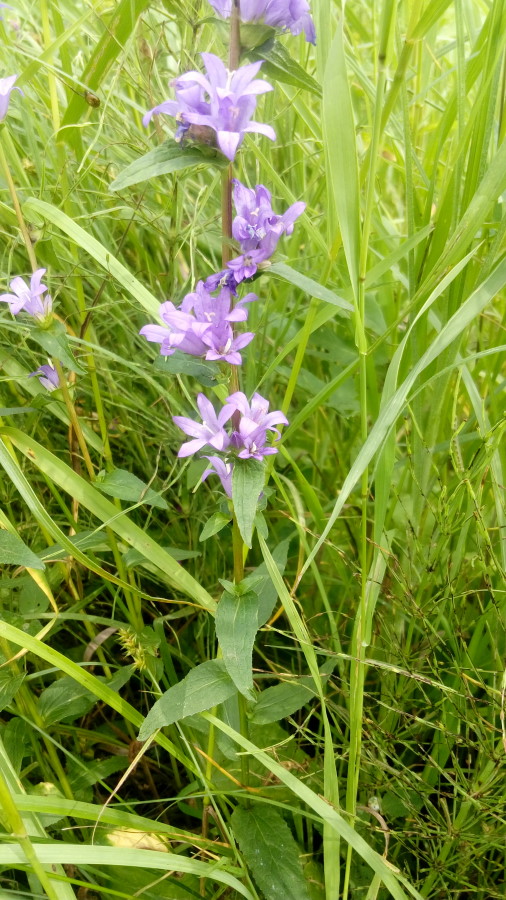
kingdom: Plantae
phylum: Tracheophyta
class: Magnoliopsida
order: Asterales
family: Campanulaceae
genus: Campanula
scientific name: Campanula glomerata
